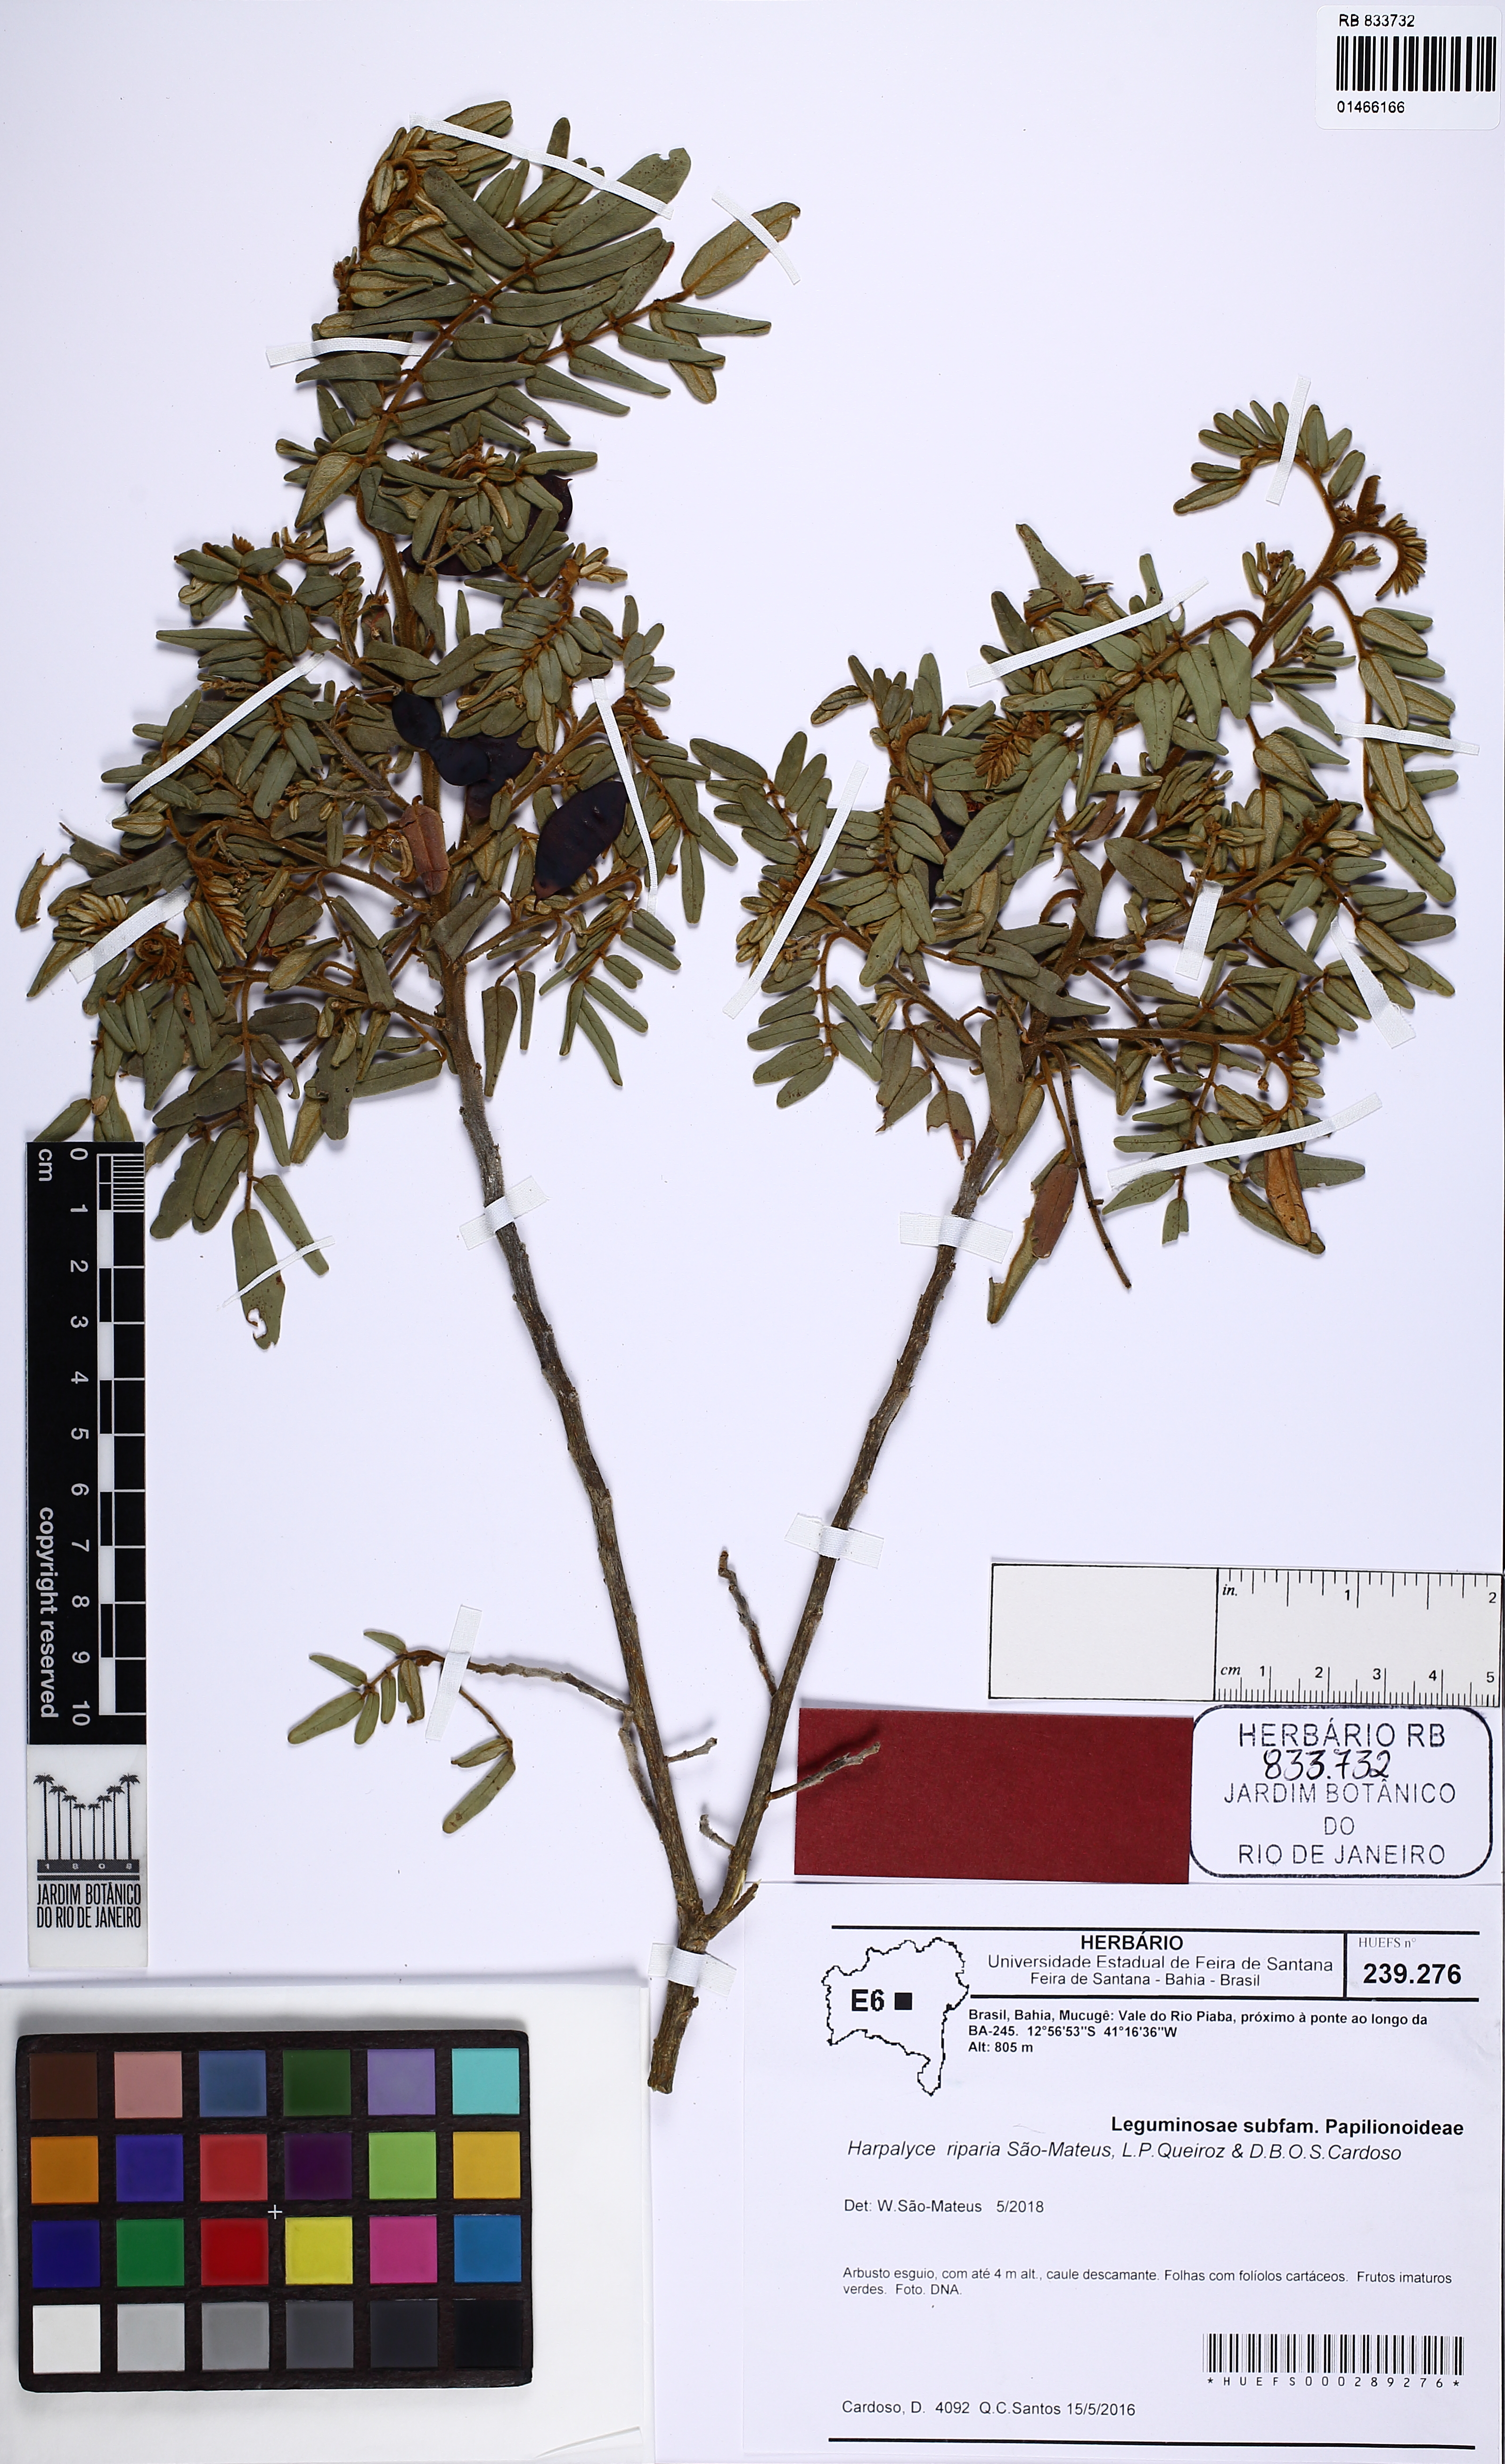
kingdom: Plantae
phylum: Tracheophyta
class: Magnoliopsida
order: Fabales
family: Fabaceae
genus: Harpalyce
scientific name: Harpalyce riparia
